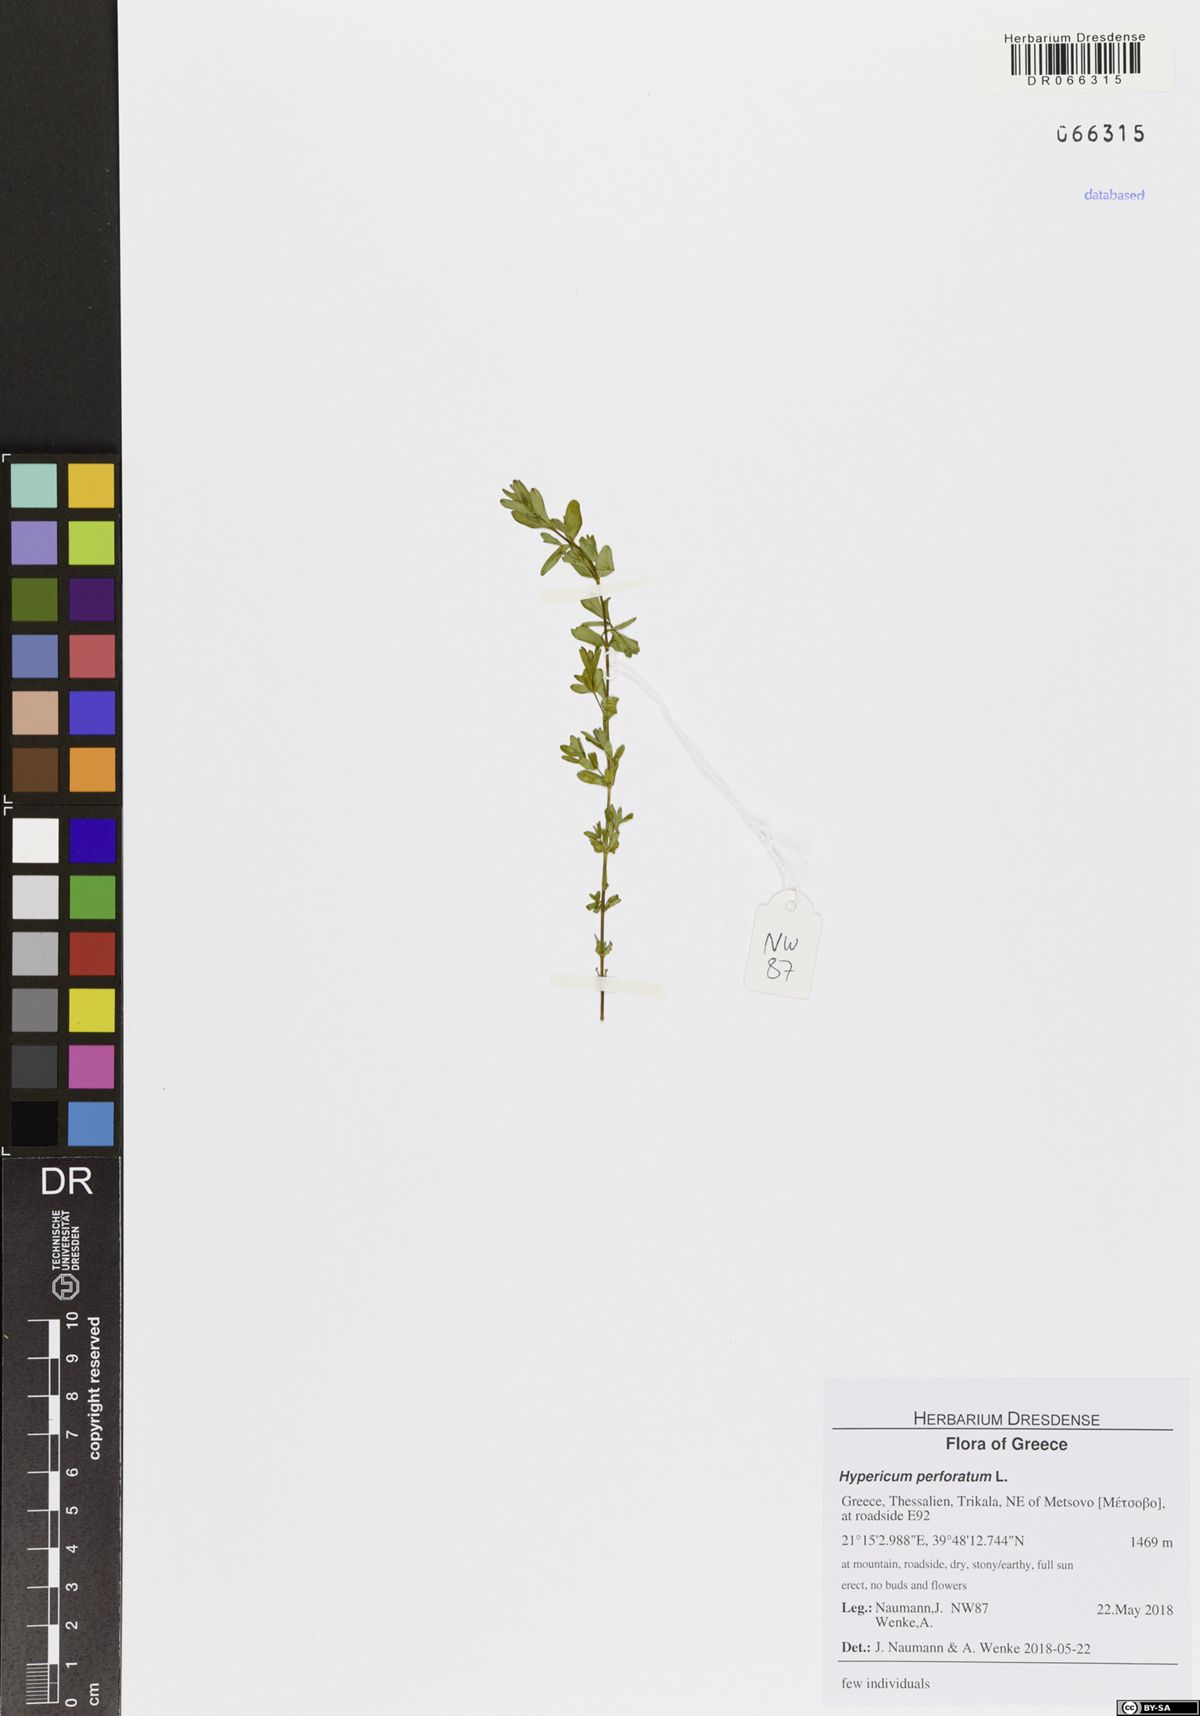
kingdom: Plantae
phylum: Tracheophyta
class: Magnoliopsida
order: Malpighiales
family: Hypericaceae
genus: Hypericum
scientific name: Hypericum perforatum
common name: Common st. johnswort
